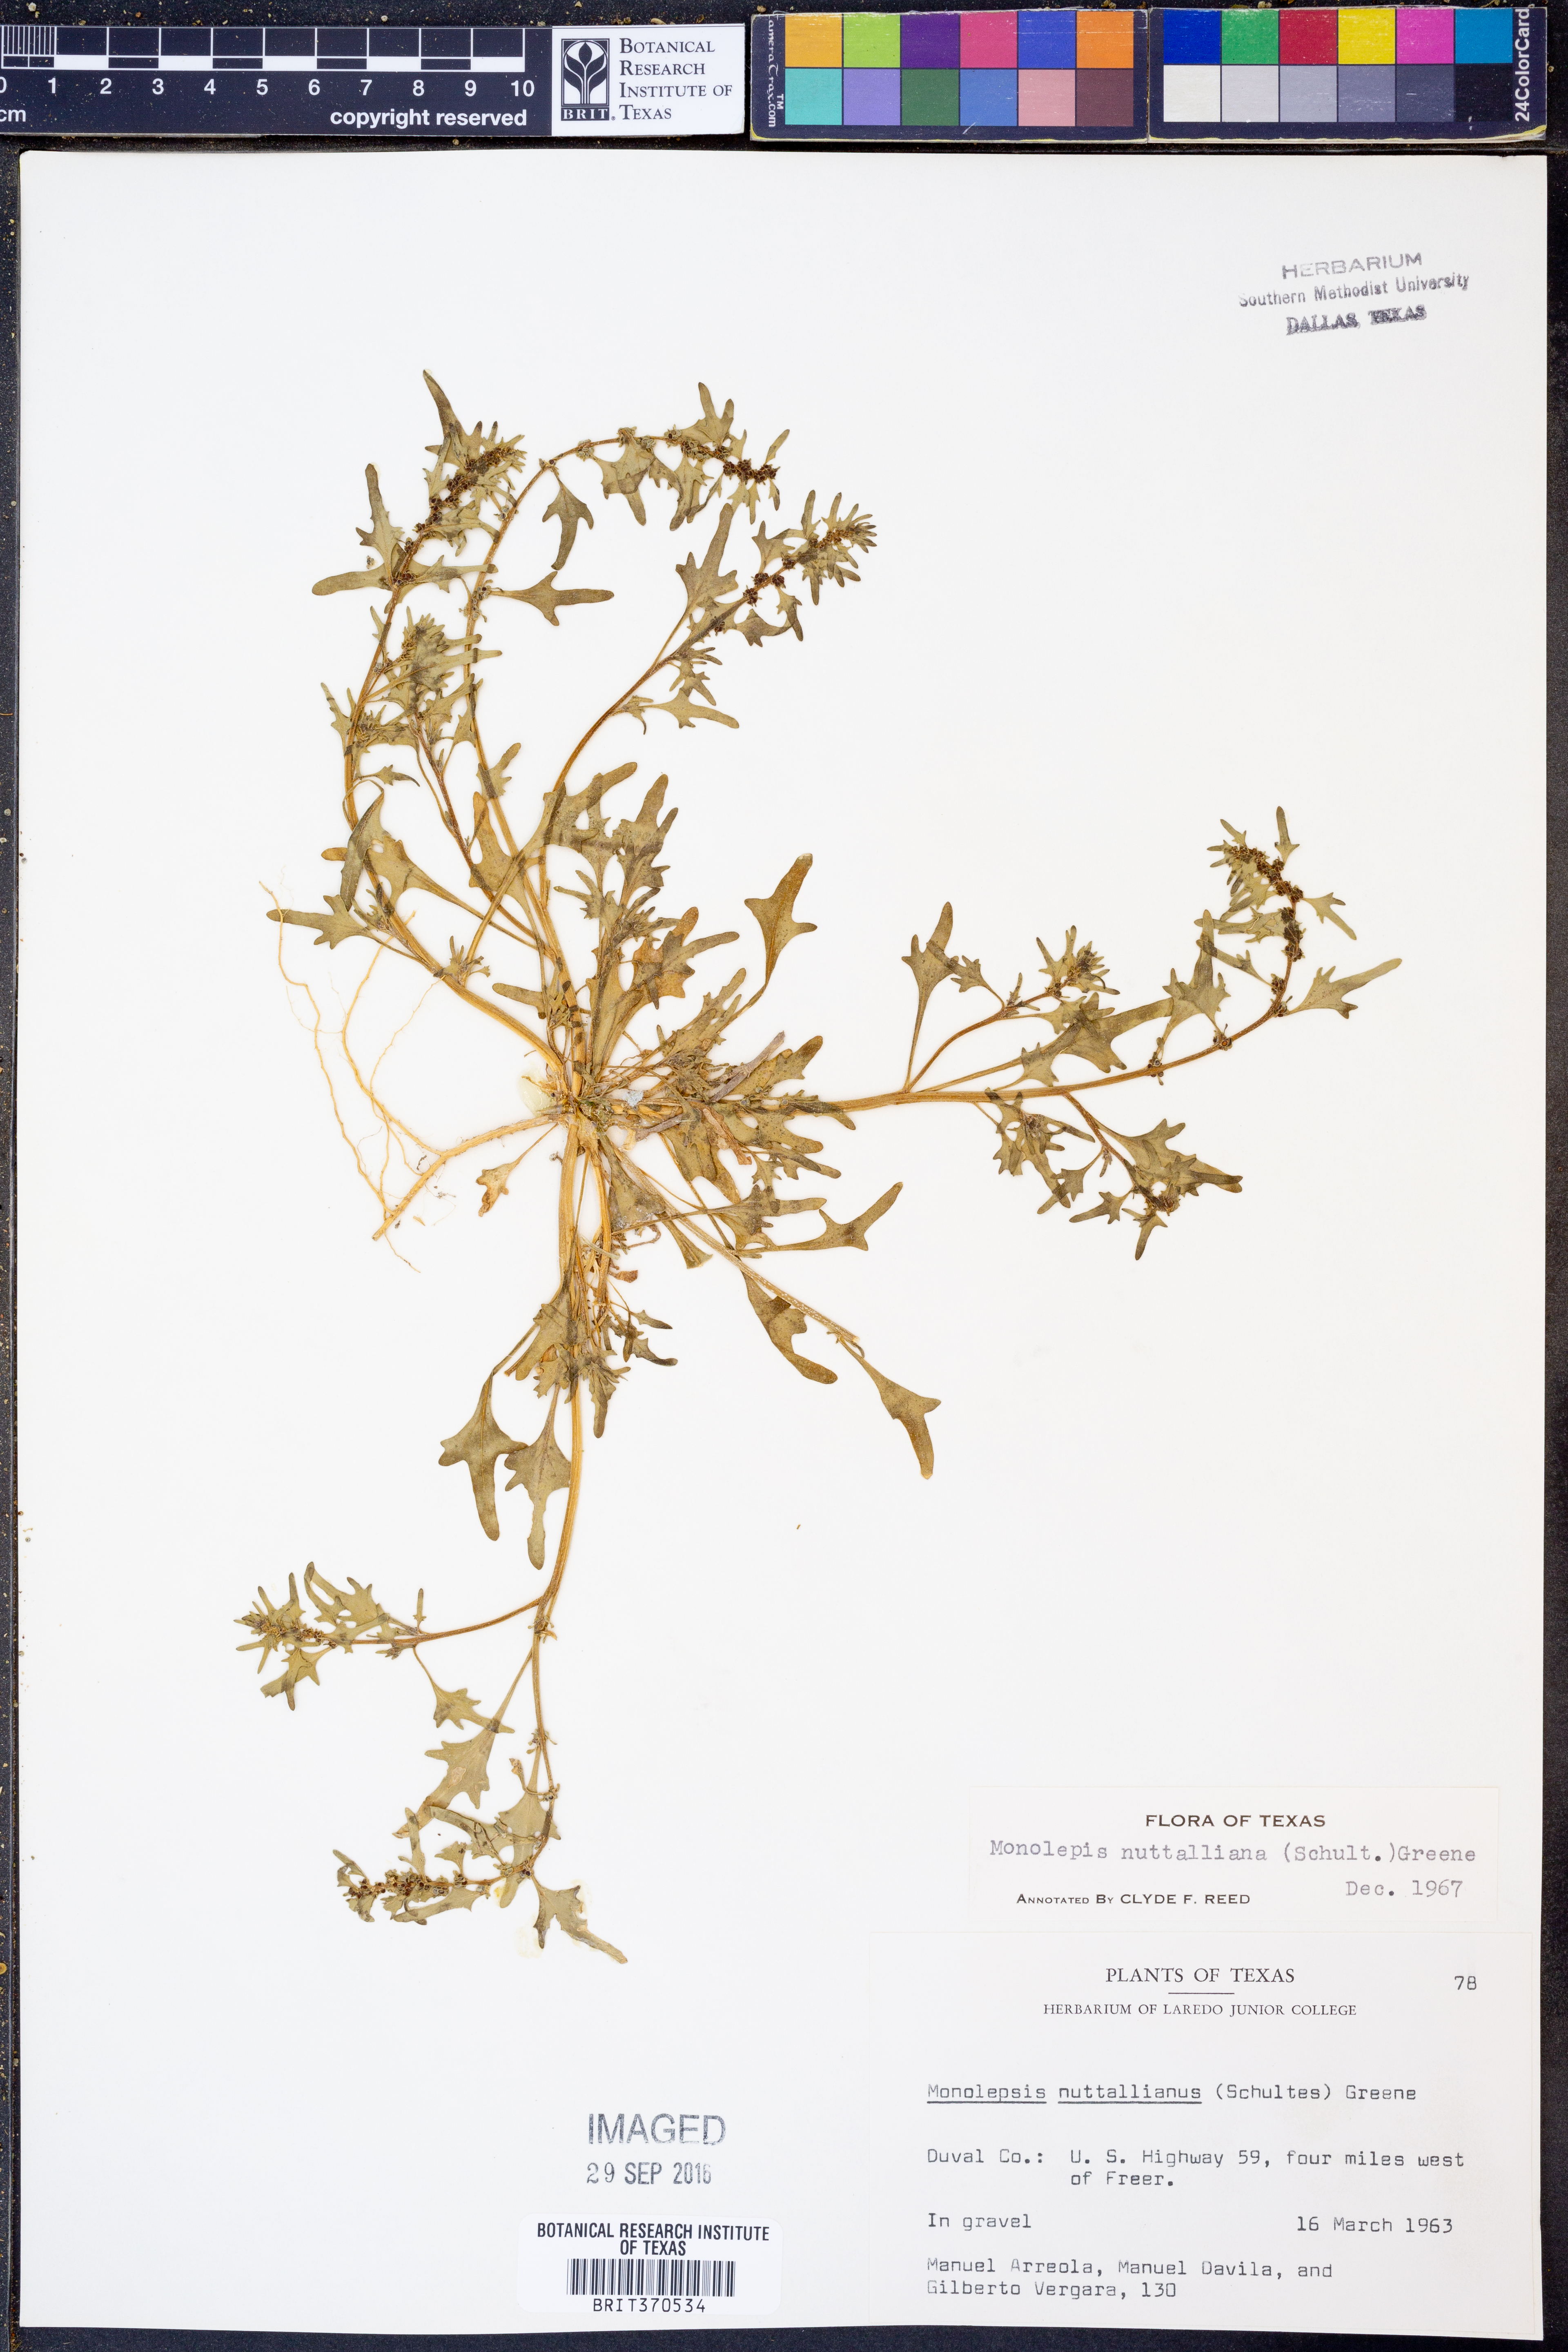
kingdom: Plantae
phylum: Tracheophyta
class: Magnoliopsida
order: Caryophyllales
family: Amaranthaceae
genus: Blitum
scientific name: Blitum nuttallianum
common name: Poverty-weed
